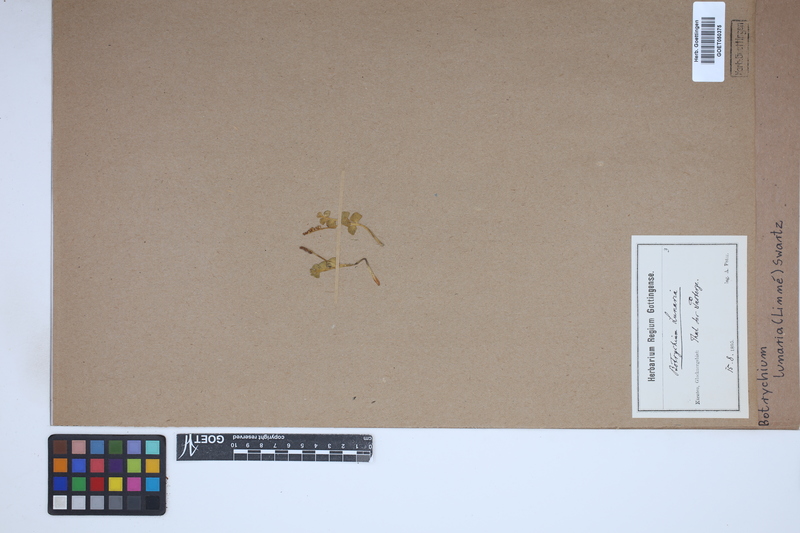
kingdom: Plantae
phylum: Tracheophyta
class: Polypodiopsida
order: Ophioglossales
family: Ophioglossaceae
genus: Botrychium
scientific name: Botrychium lunaria
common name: Moonwort
